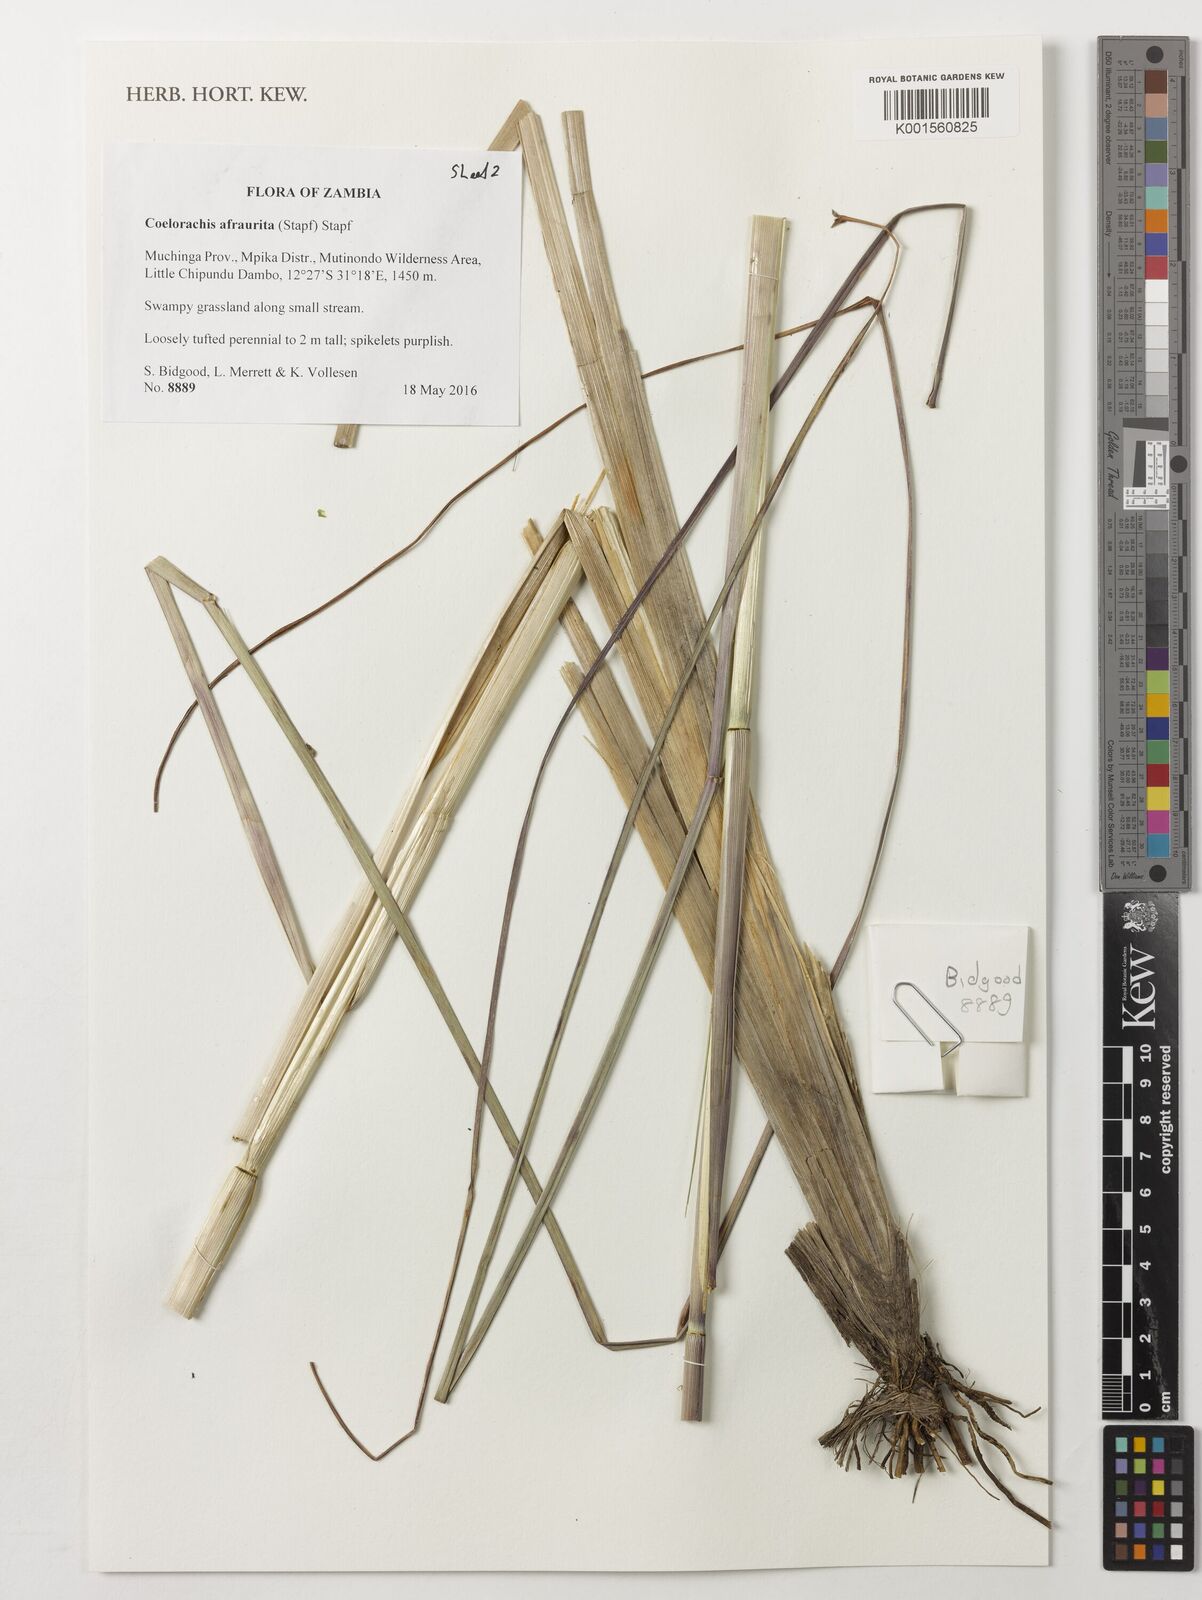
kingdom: Plantae
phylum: Tracheophyta
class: Liliopsida
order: Poales
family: Poaceae
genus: Rottboellia
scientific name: Rottboellia afraurita
